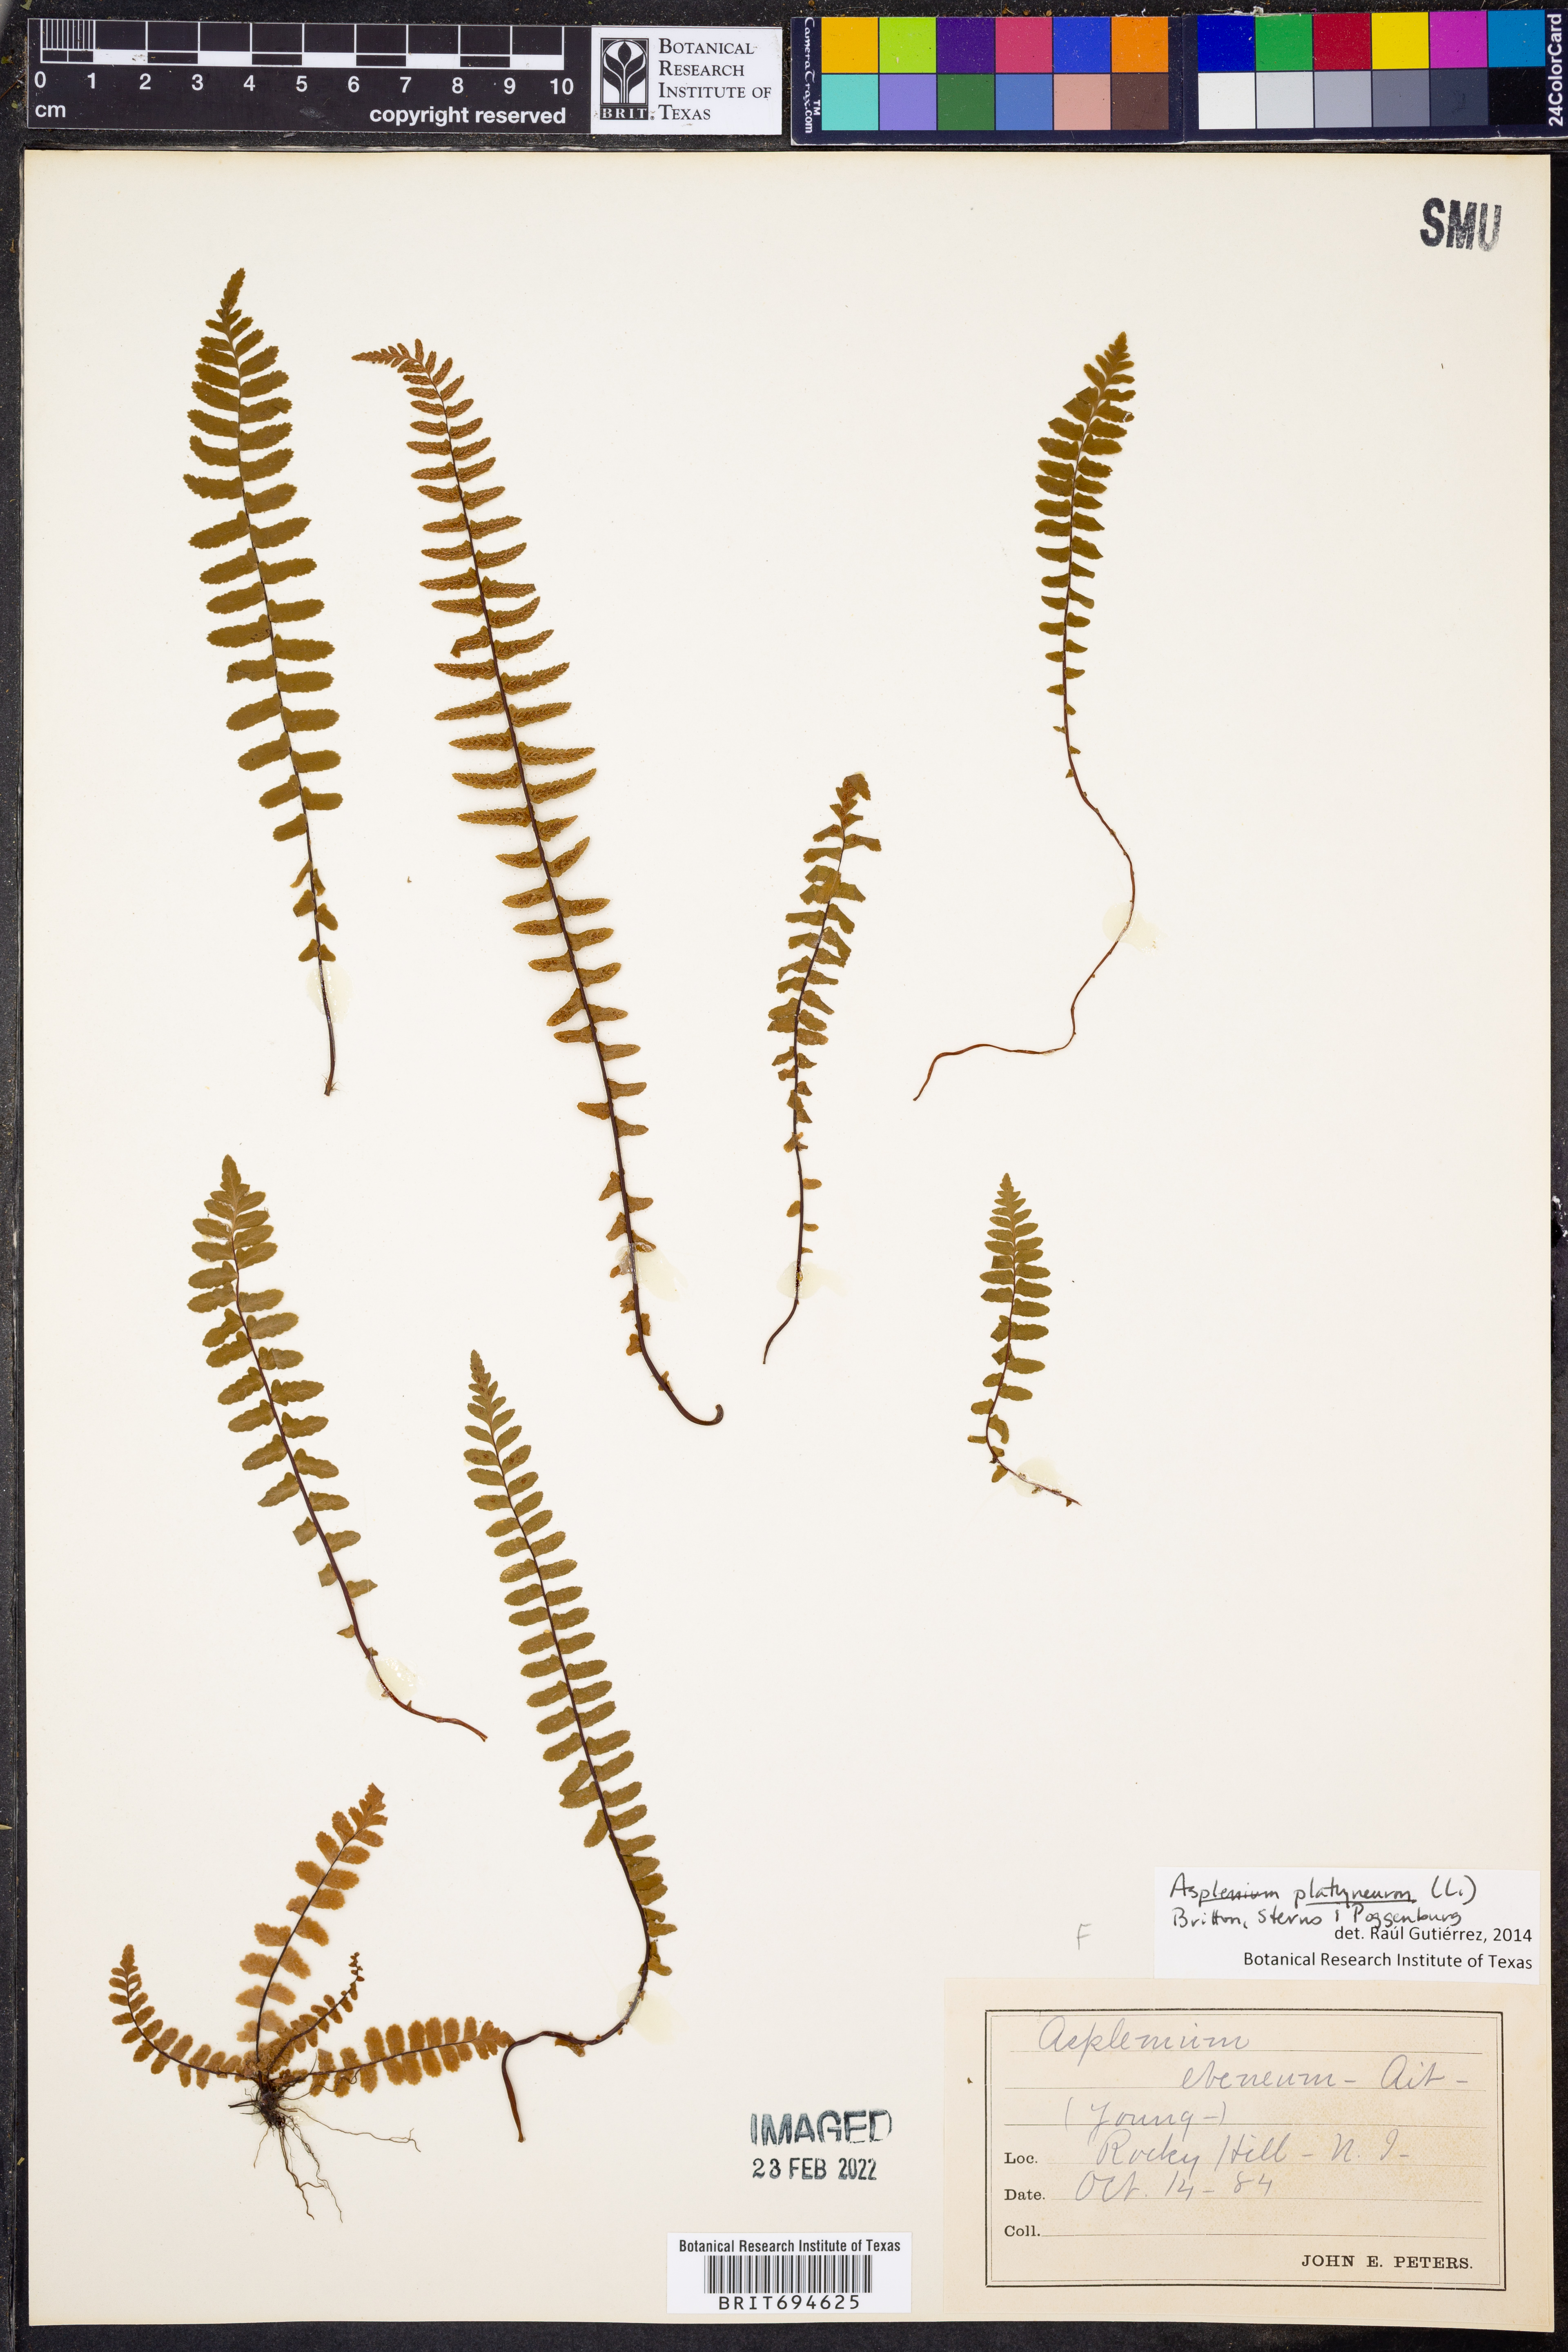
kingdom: Plantae
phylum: Tracheophyta
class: Polypodiopsida
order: Polypodiales
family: Aspleniaceae
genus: Asplenium
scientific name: Asplenium platyneuron
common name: Ebony spleenwort
